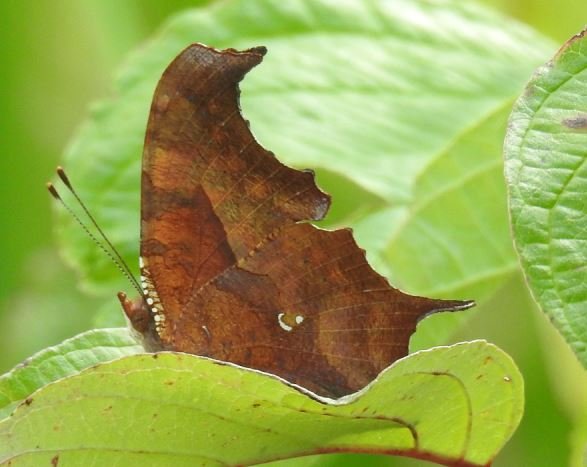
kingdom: Animalia
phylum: Arthropoda
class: Insecta
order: Lepidoptera
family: Nymphalidae
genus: Polygonia
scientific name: Polygonia interrogationis
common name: Question Mark
